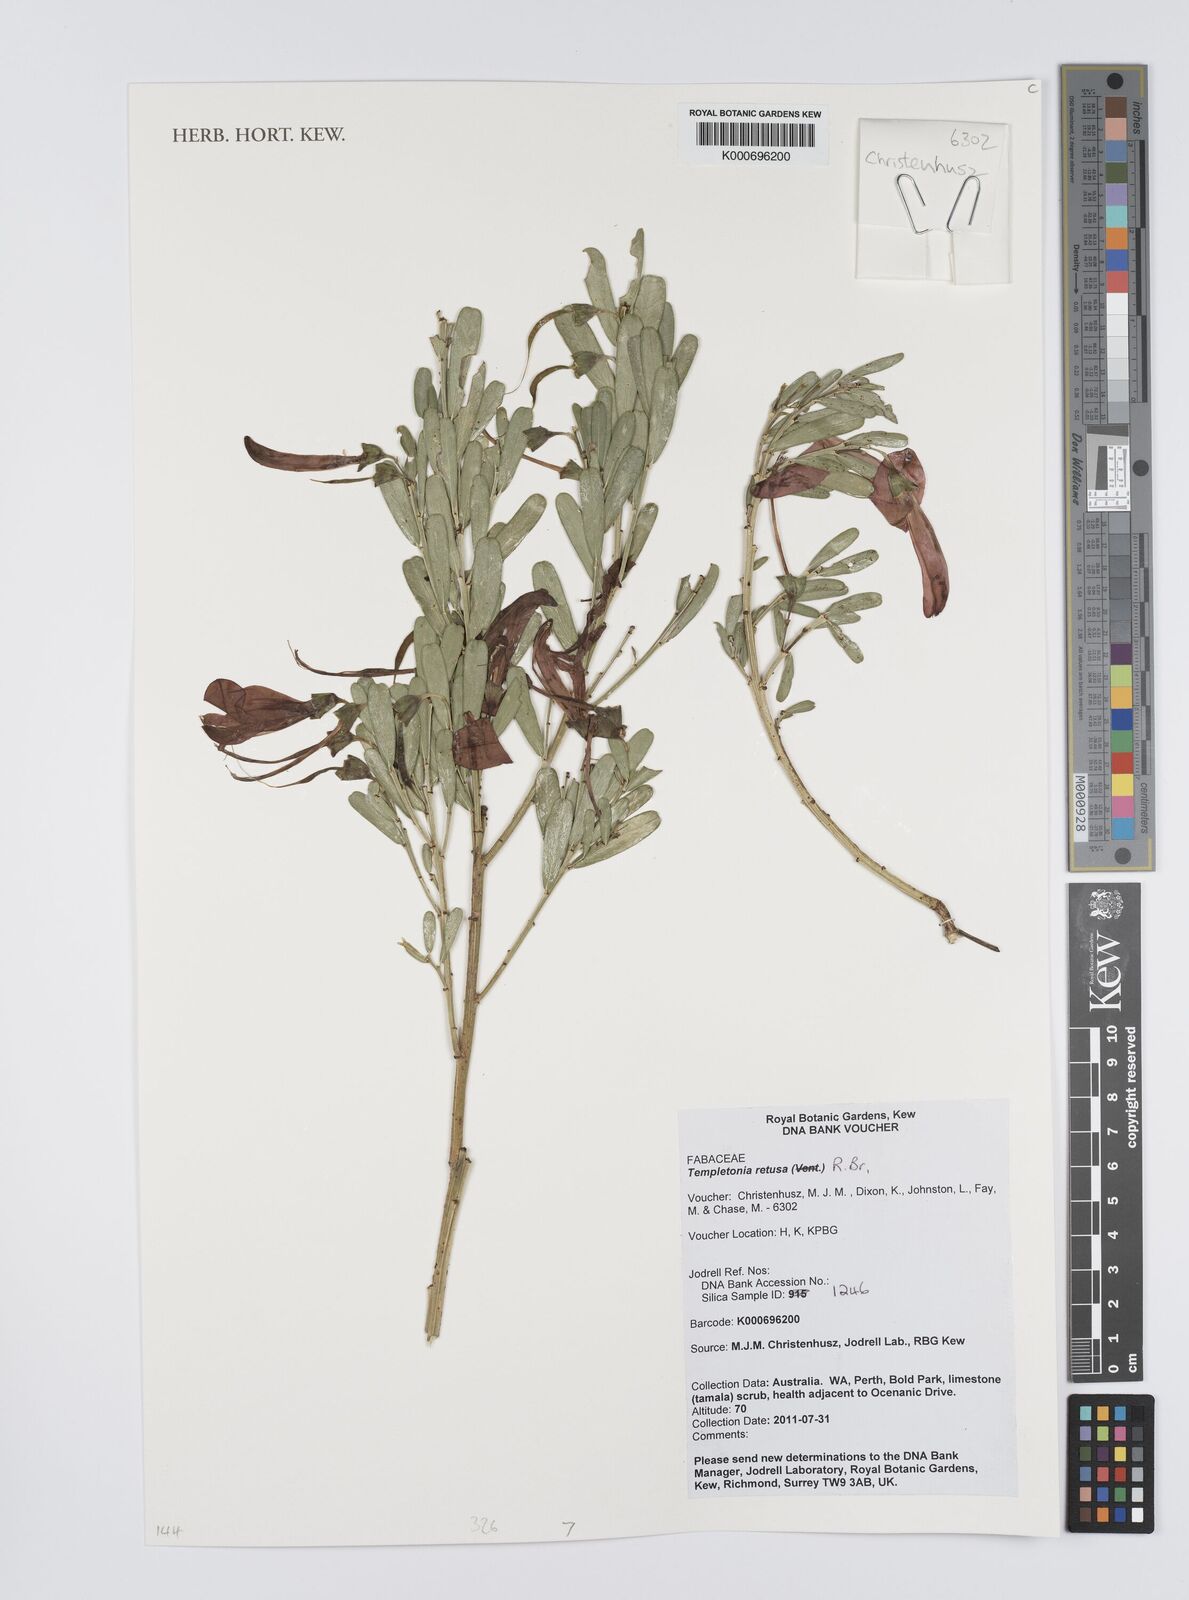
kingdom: Plantae
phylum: Tracheophyta
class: Magnoliopsida
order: Fabales
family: Fabaceae
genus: Templetonia
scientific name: Templetonia retusa
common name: Cockies'-tongue
